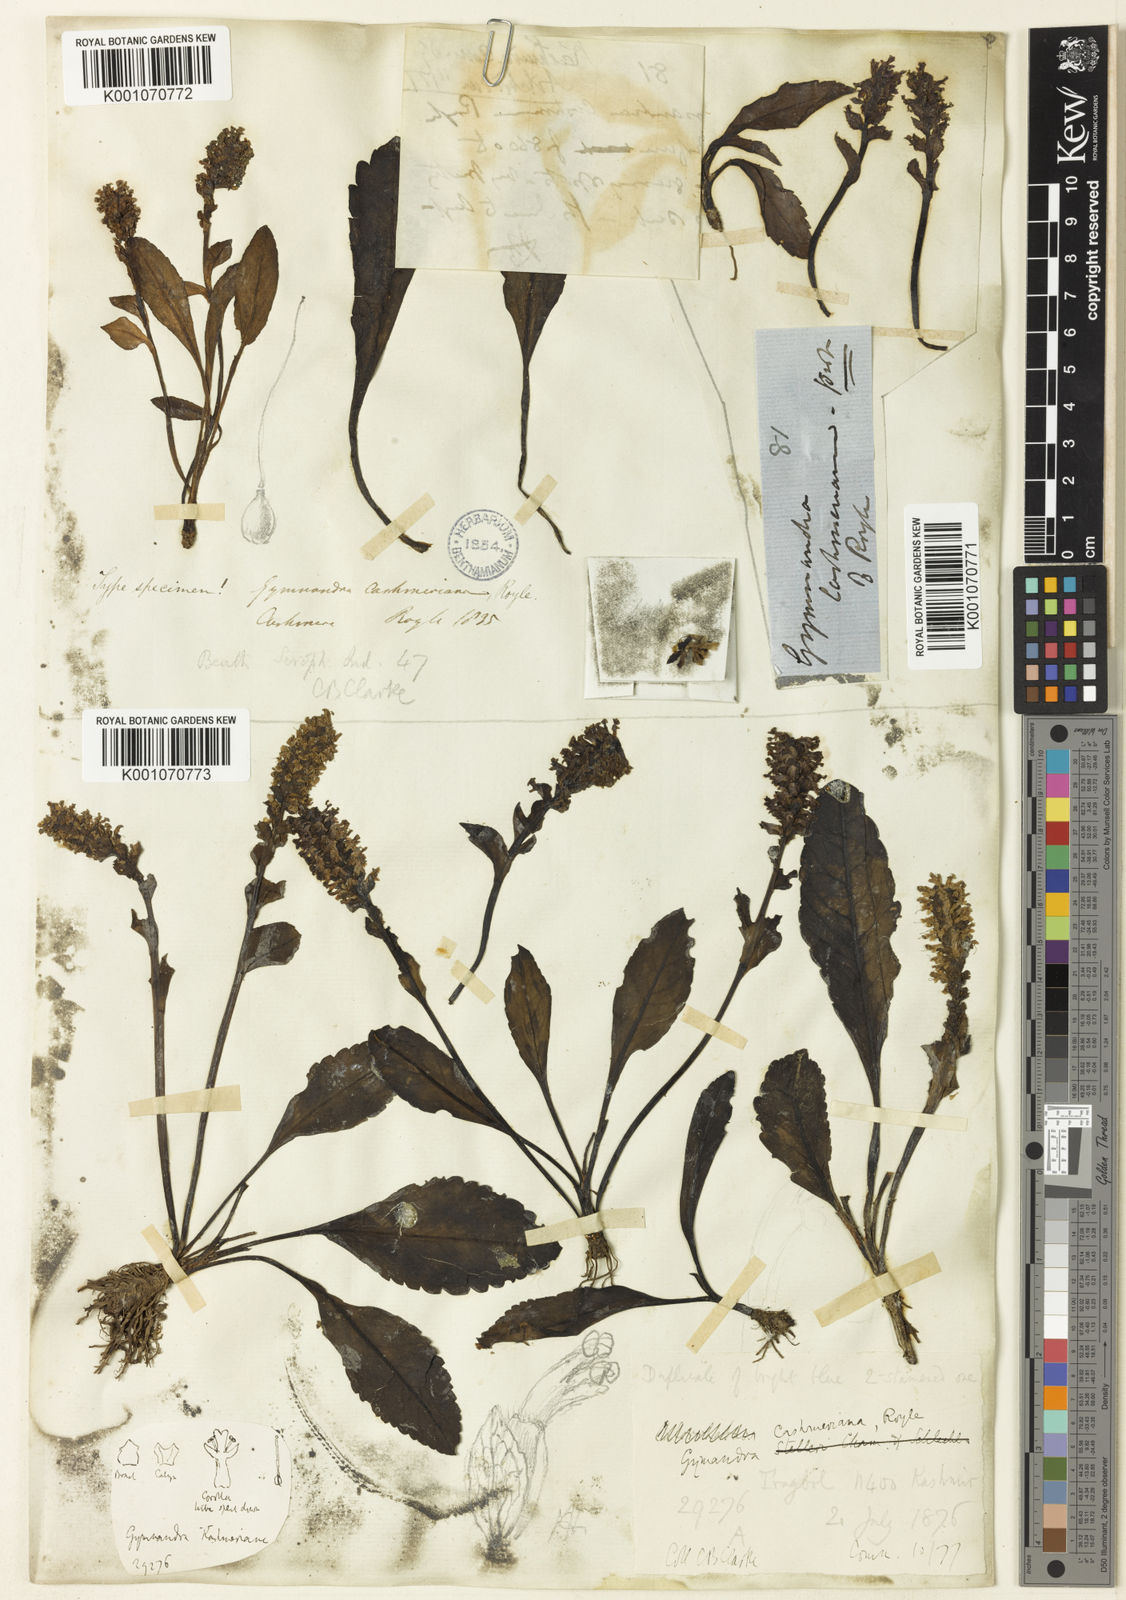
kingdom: Plantae
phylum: Tracheophyta
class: Magnoliopsida
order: Lamiales
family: Plantaginaceae
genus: Lagotis
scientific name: Lagotis cashmeriana
